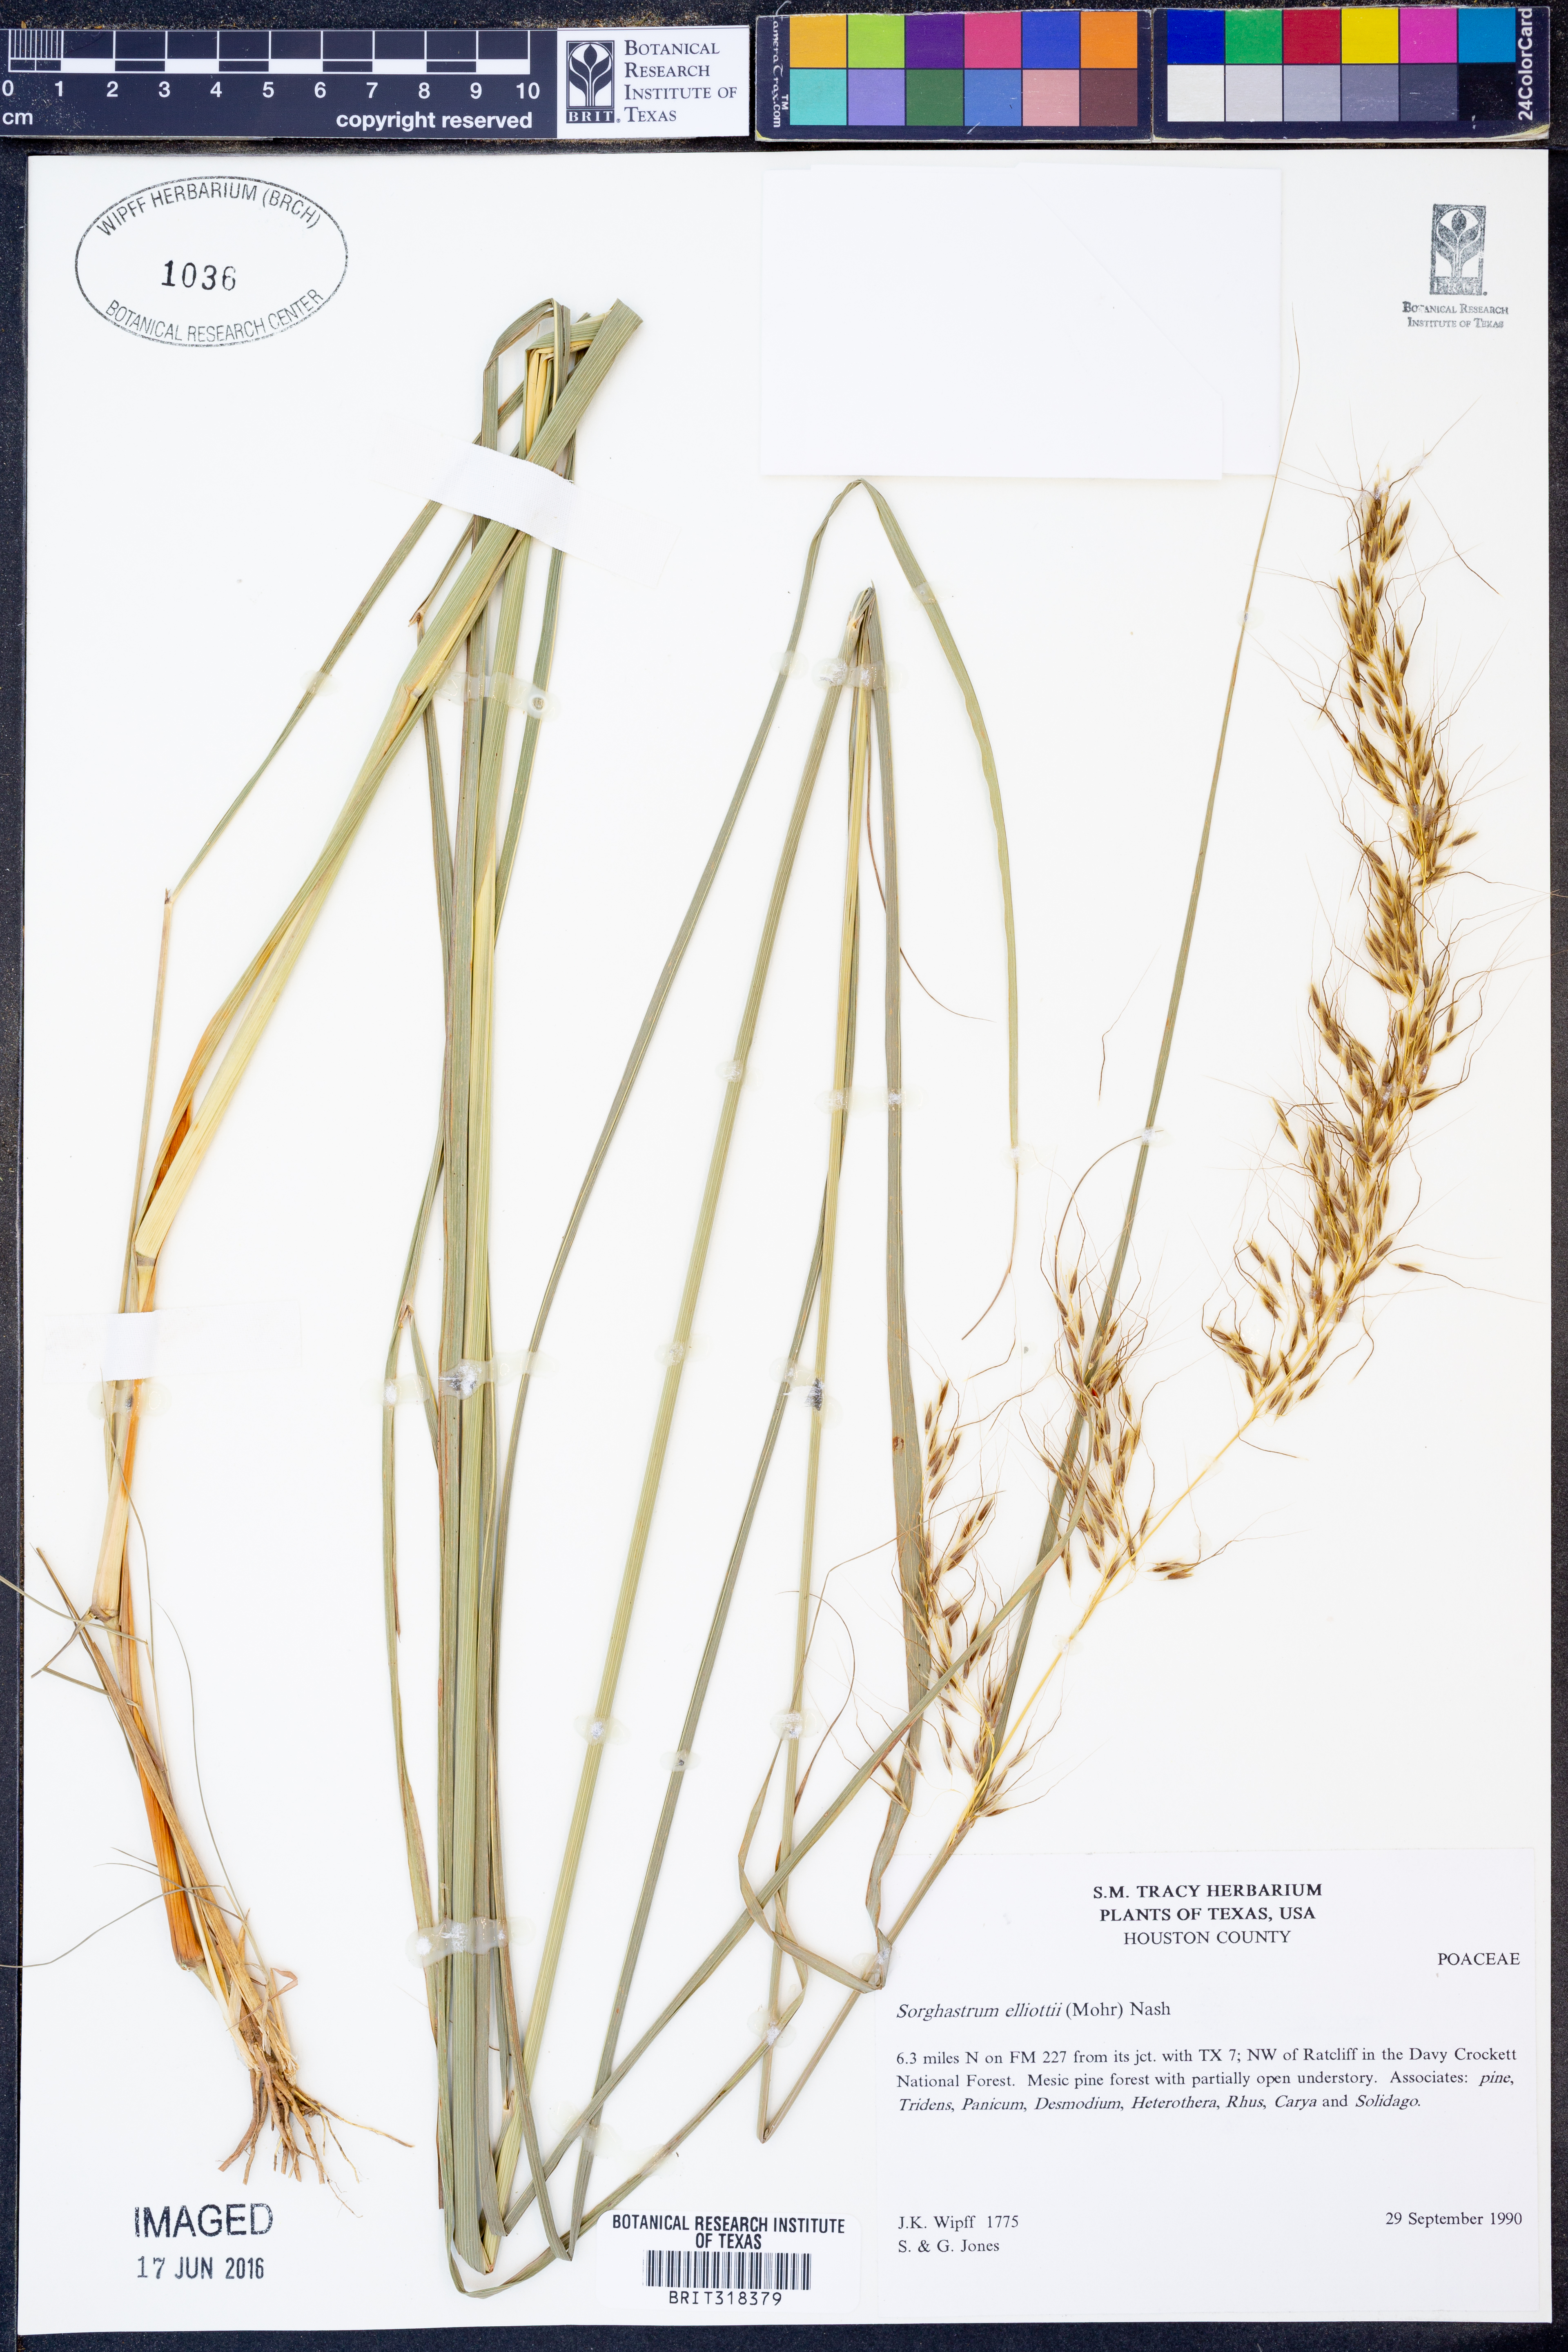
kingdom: Plantae
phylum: Tracheophyta
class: Liliopsida
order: Poales
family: Poaceae
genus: Sorghastrum
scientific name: Sorghastrum elliottii
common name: Slender indian grass
